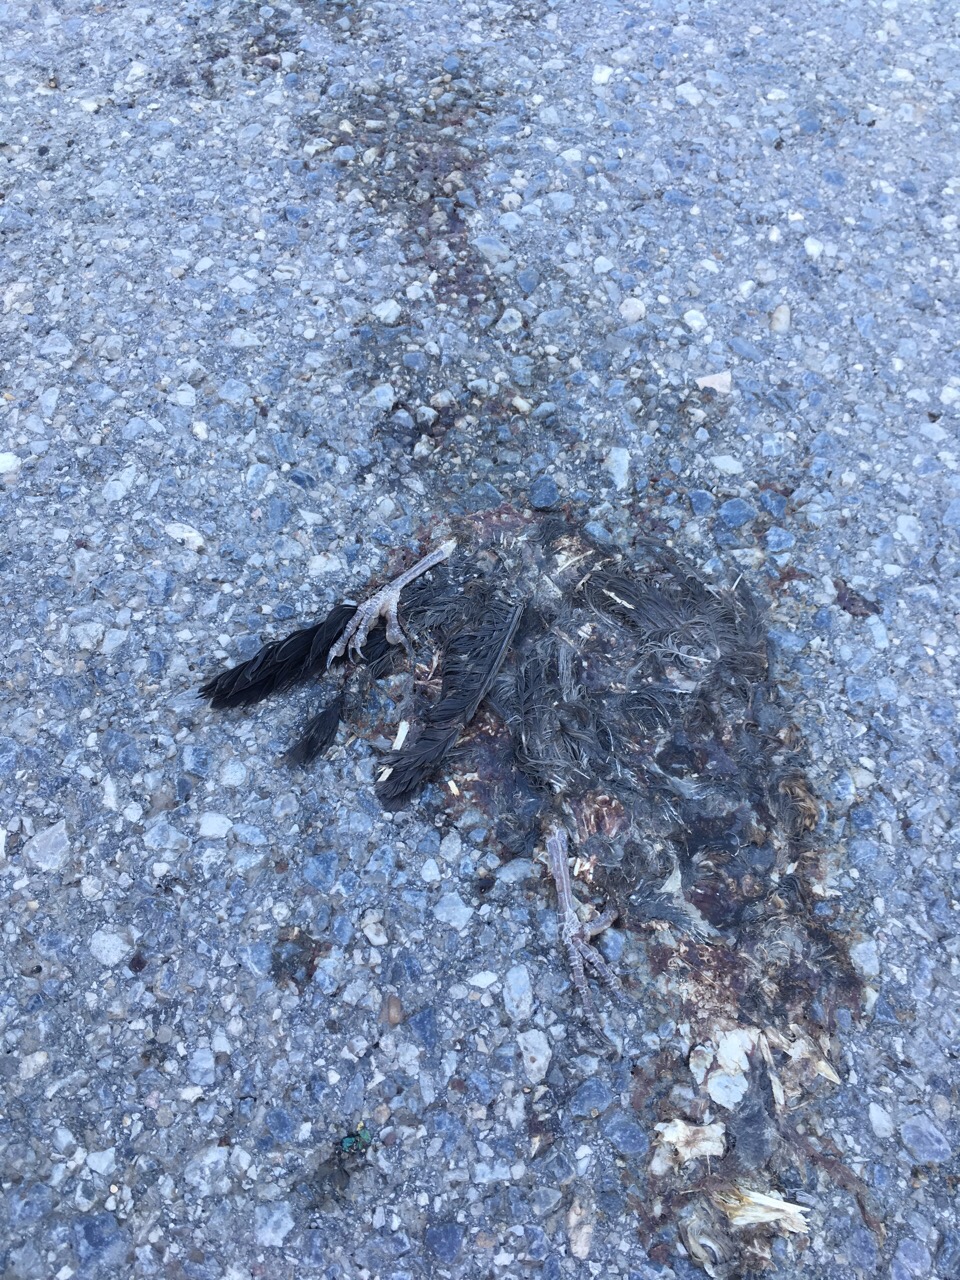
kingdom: Animalia
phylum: Chordata
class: Aves
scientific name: Aves
